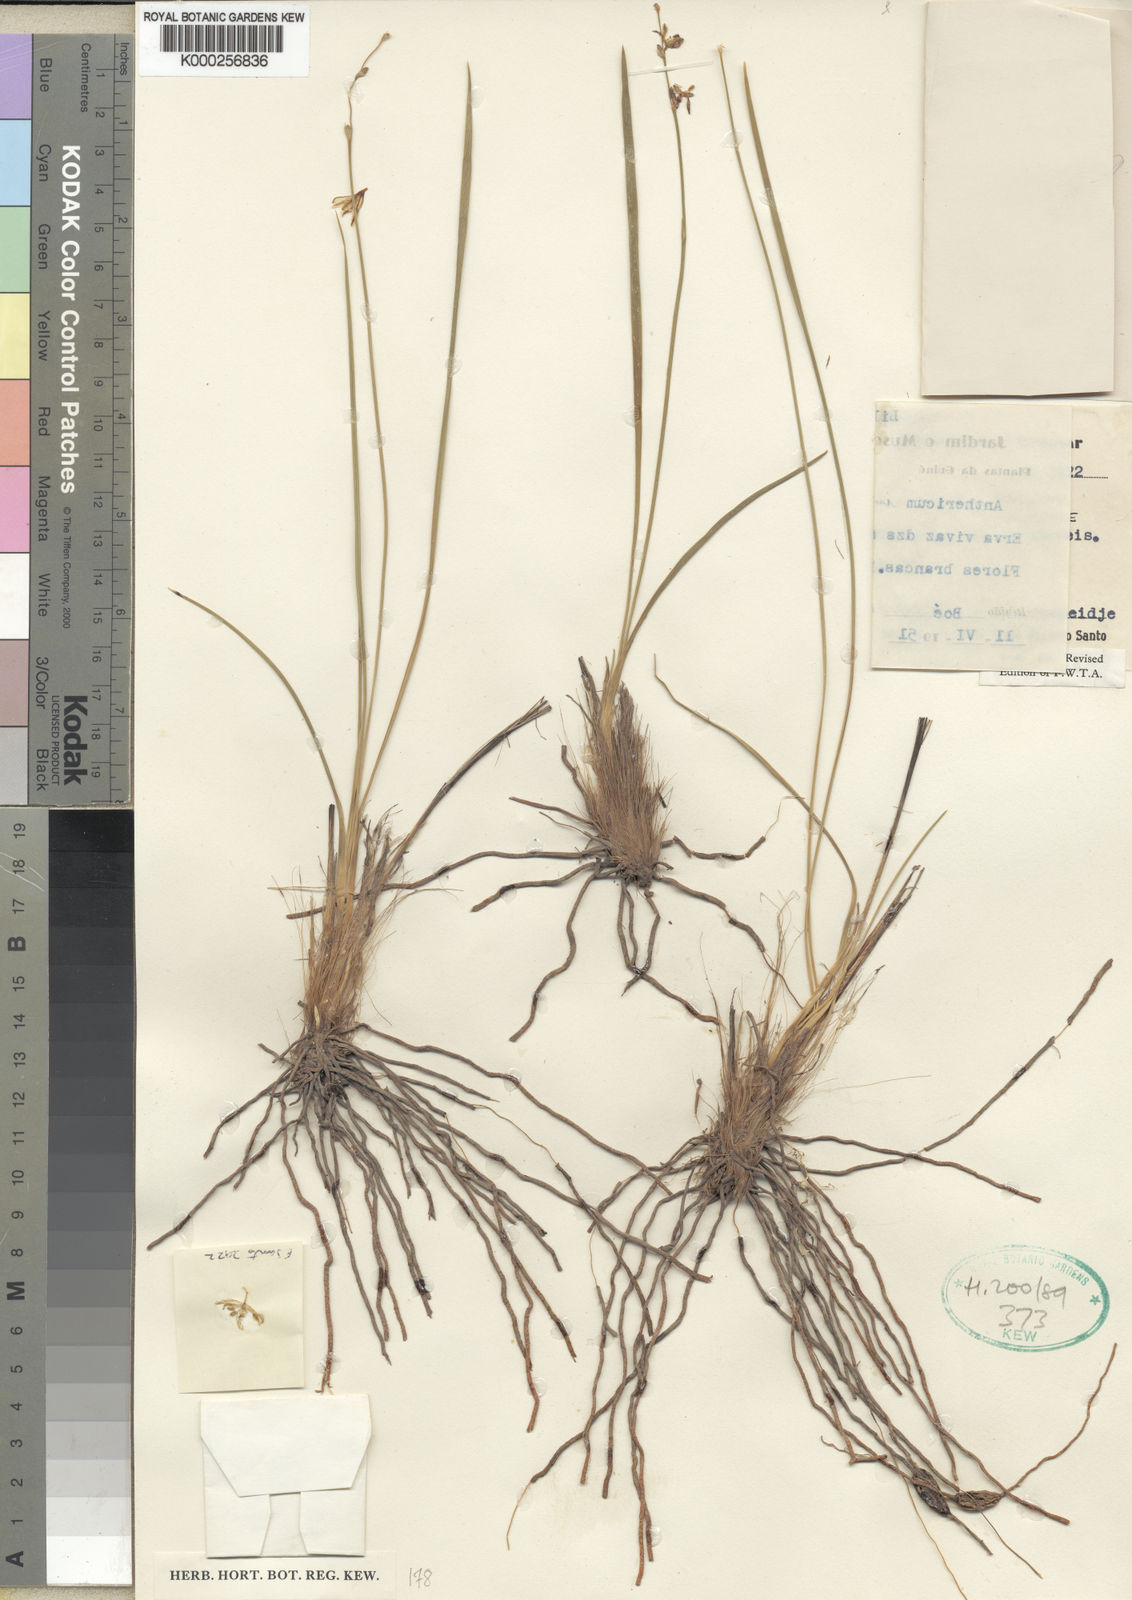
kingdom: Plantae
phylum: Tracheophyta
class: Liliopsida
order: Asparagales
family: Asparagaceae
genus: Chlorophytum
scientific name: Chlorophytum immaculatum
